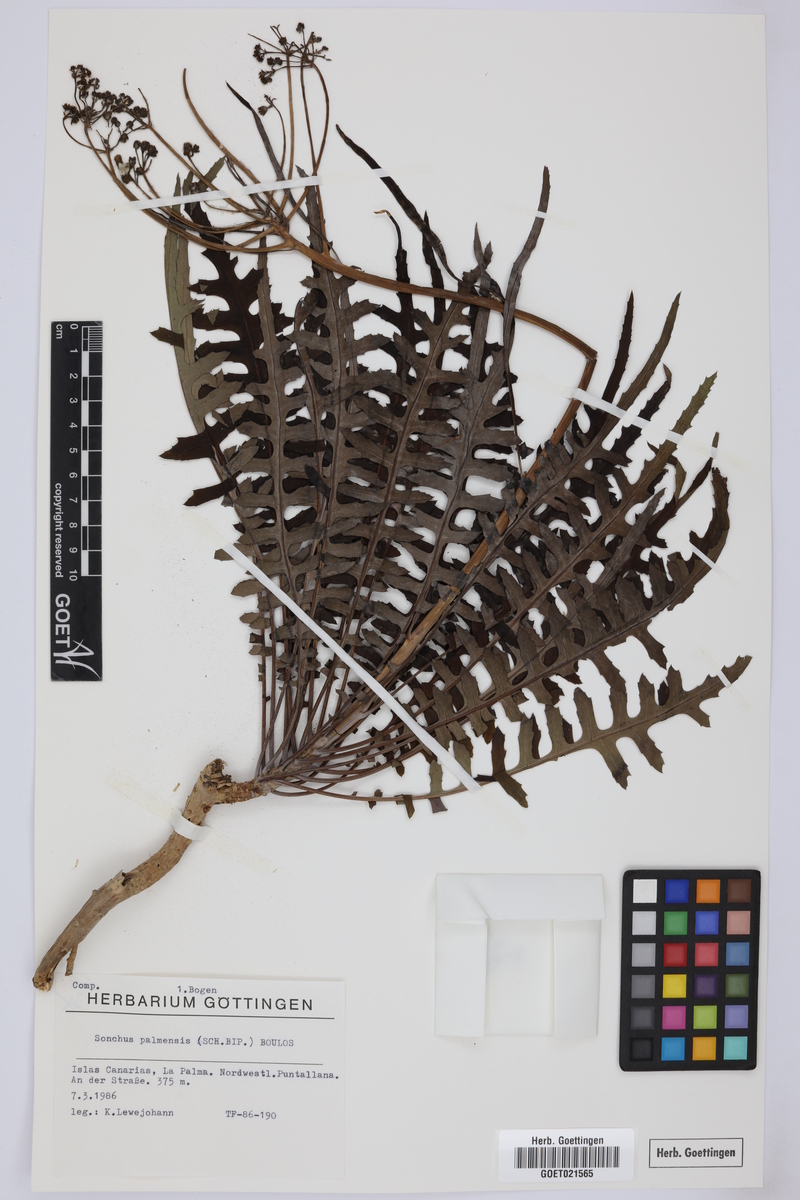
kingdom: Plantae
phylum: Tracheophyta
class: Magnoliopsida
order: Asterales
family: Asteraceae
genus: Sonchus
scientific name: Sonchus palmensis
